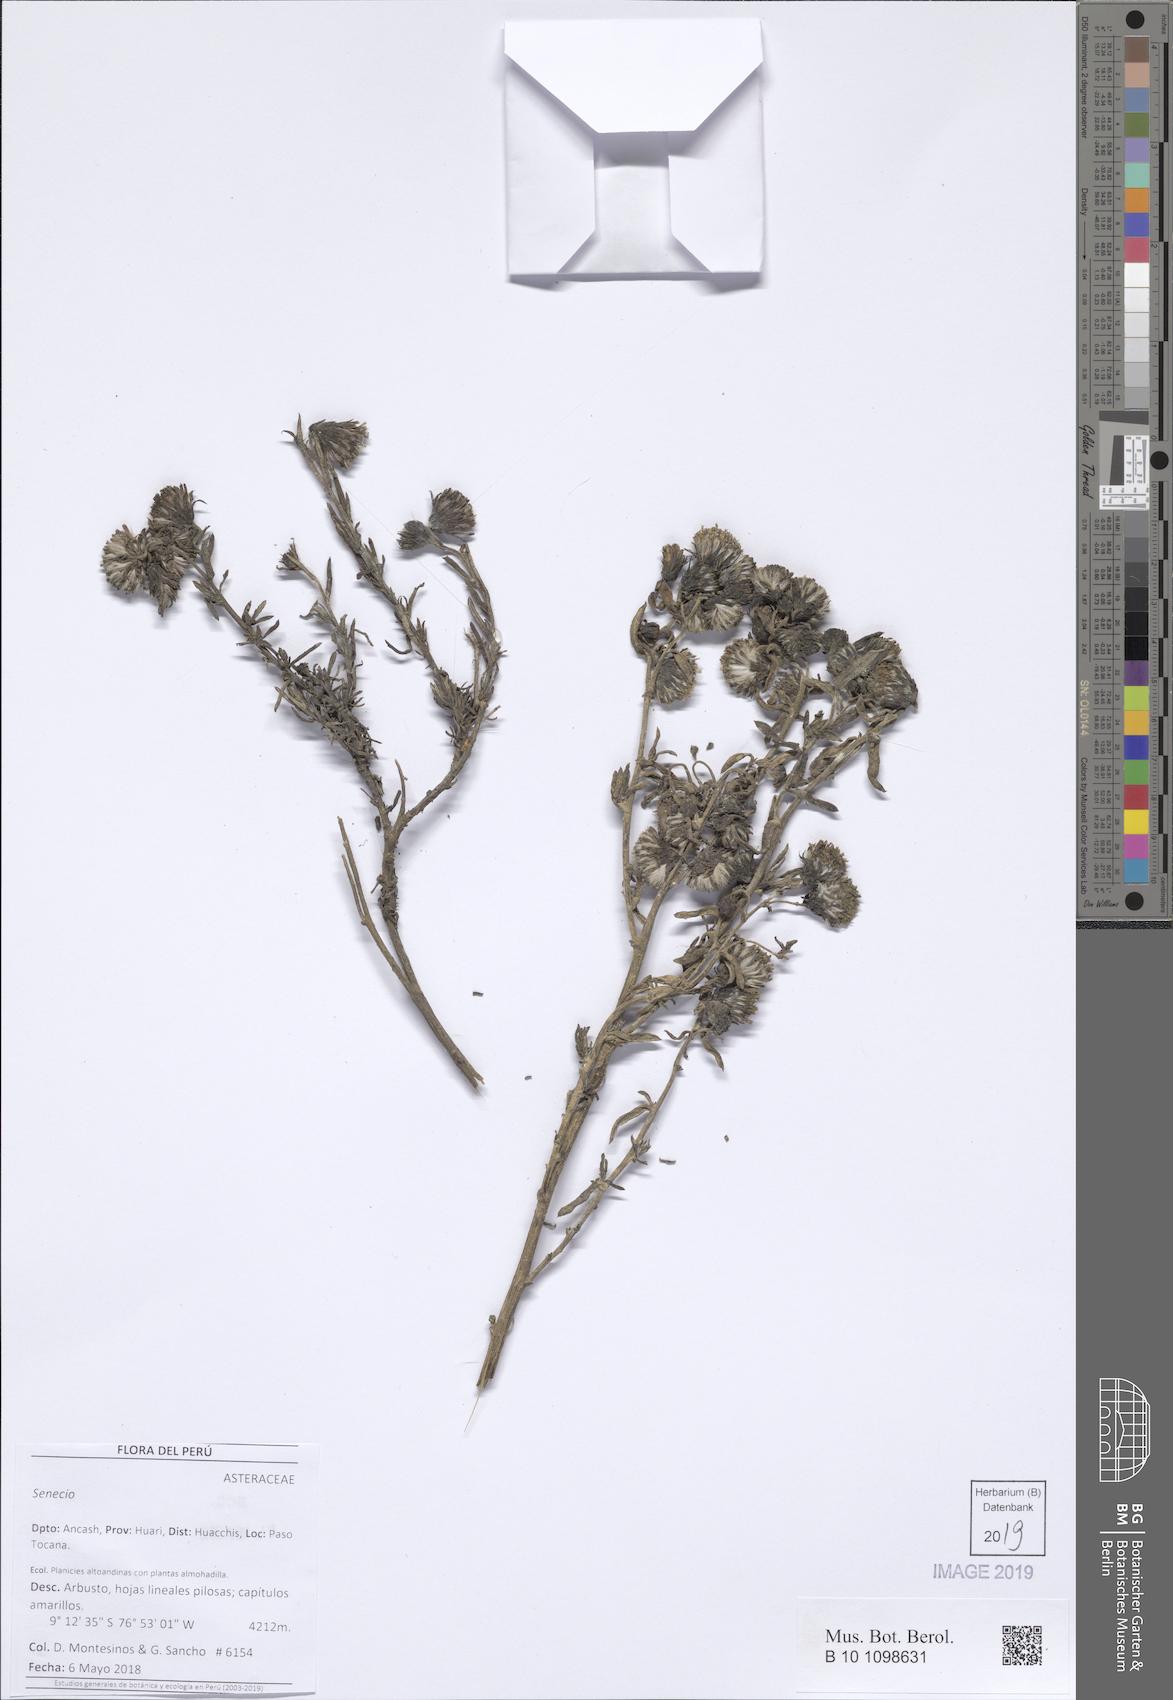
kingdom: Plantae
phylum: Tracheophyta
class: Magnoliopsida
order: Asterales
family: Asteraceae
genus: Senecio
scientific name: Senecio ishcaivilcanus
